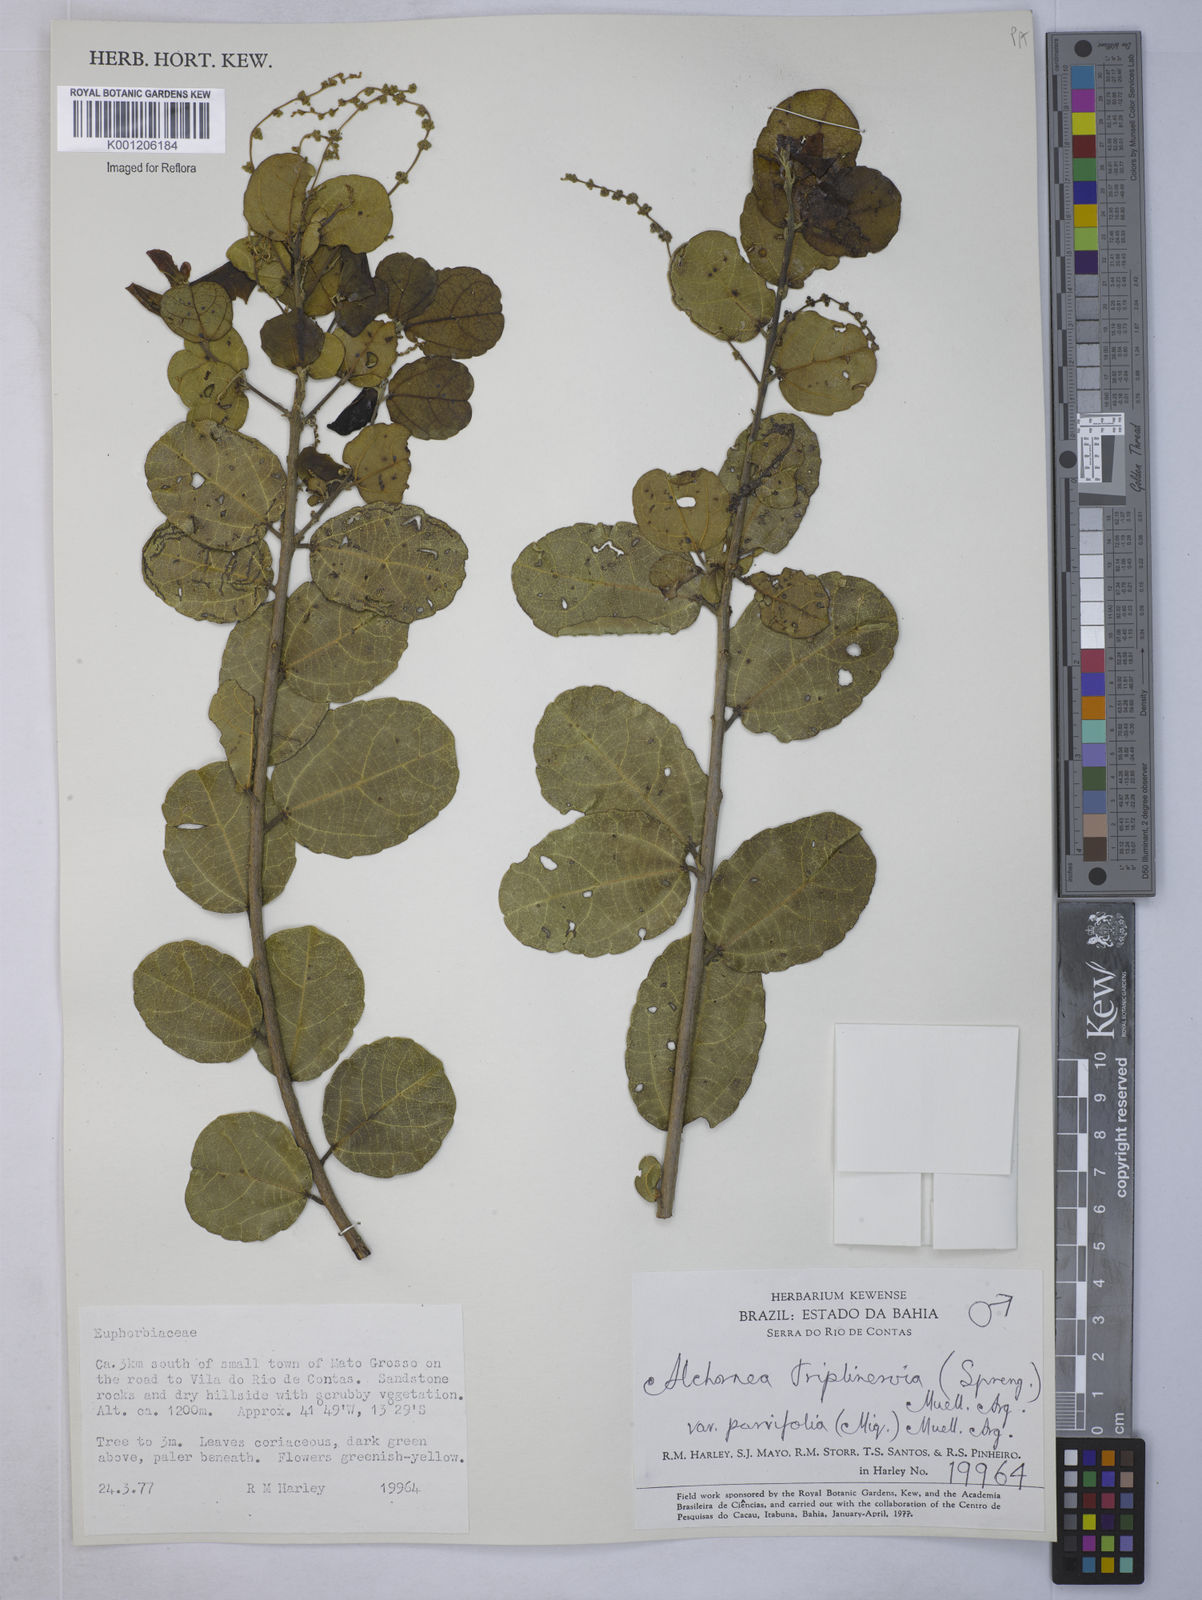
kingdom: Plantae
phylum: Tracheophyta
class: Magnoliopsida
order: Malpighiales
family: Euphorbiaceae
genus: Alchornea
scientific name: Alchornea
